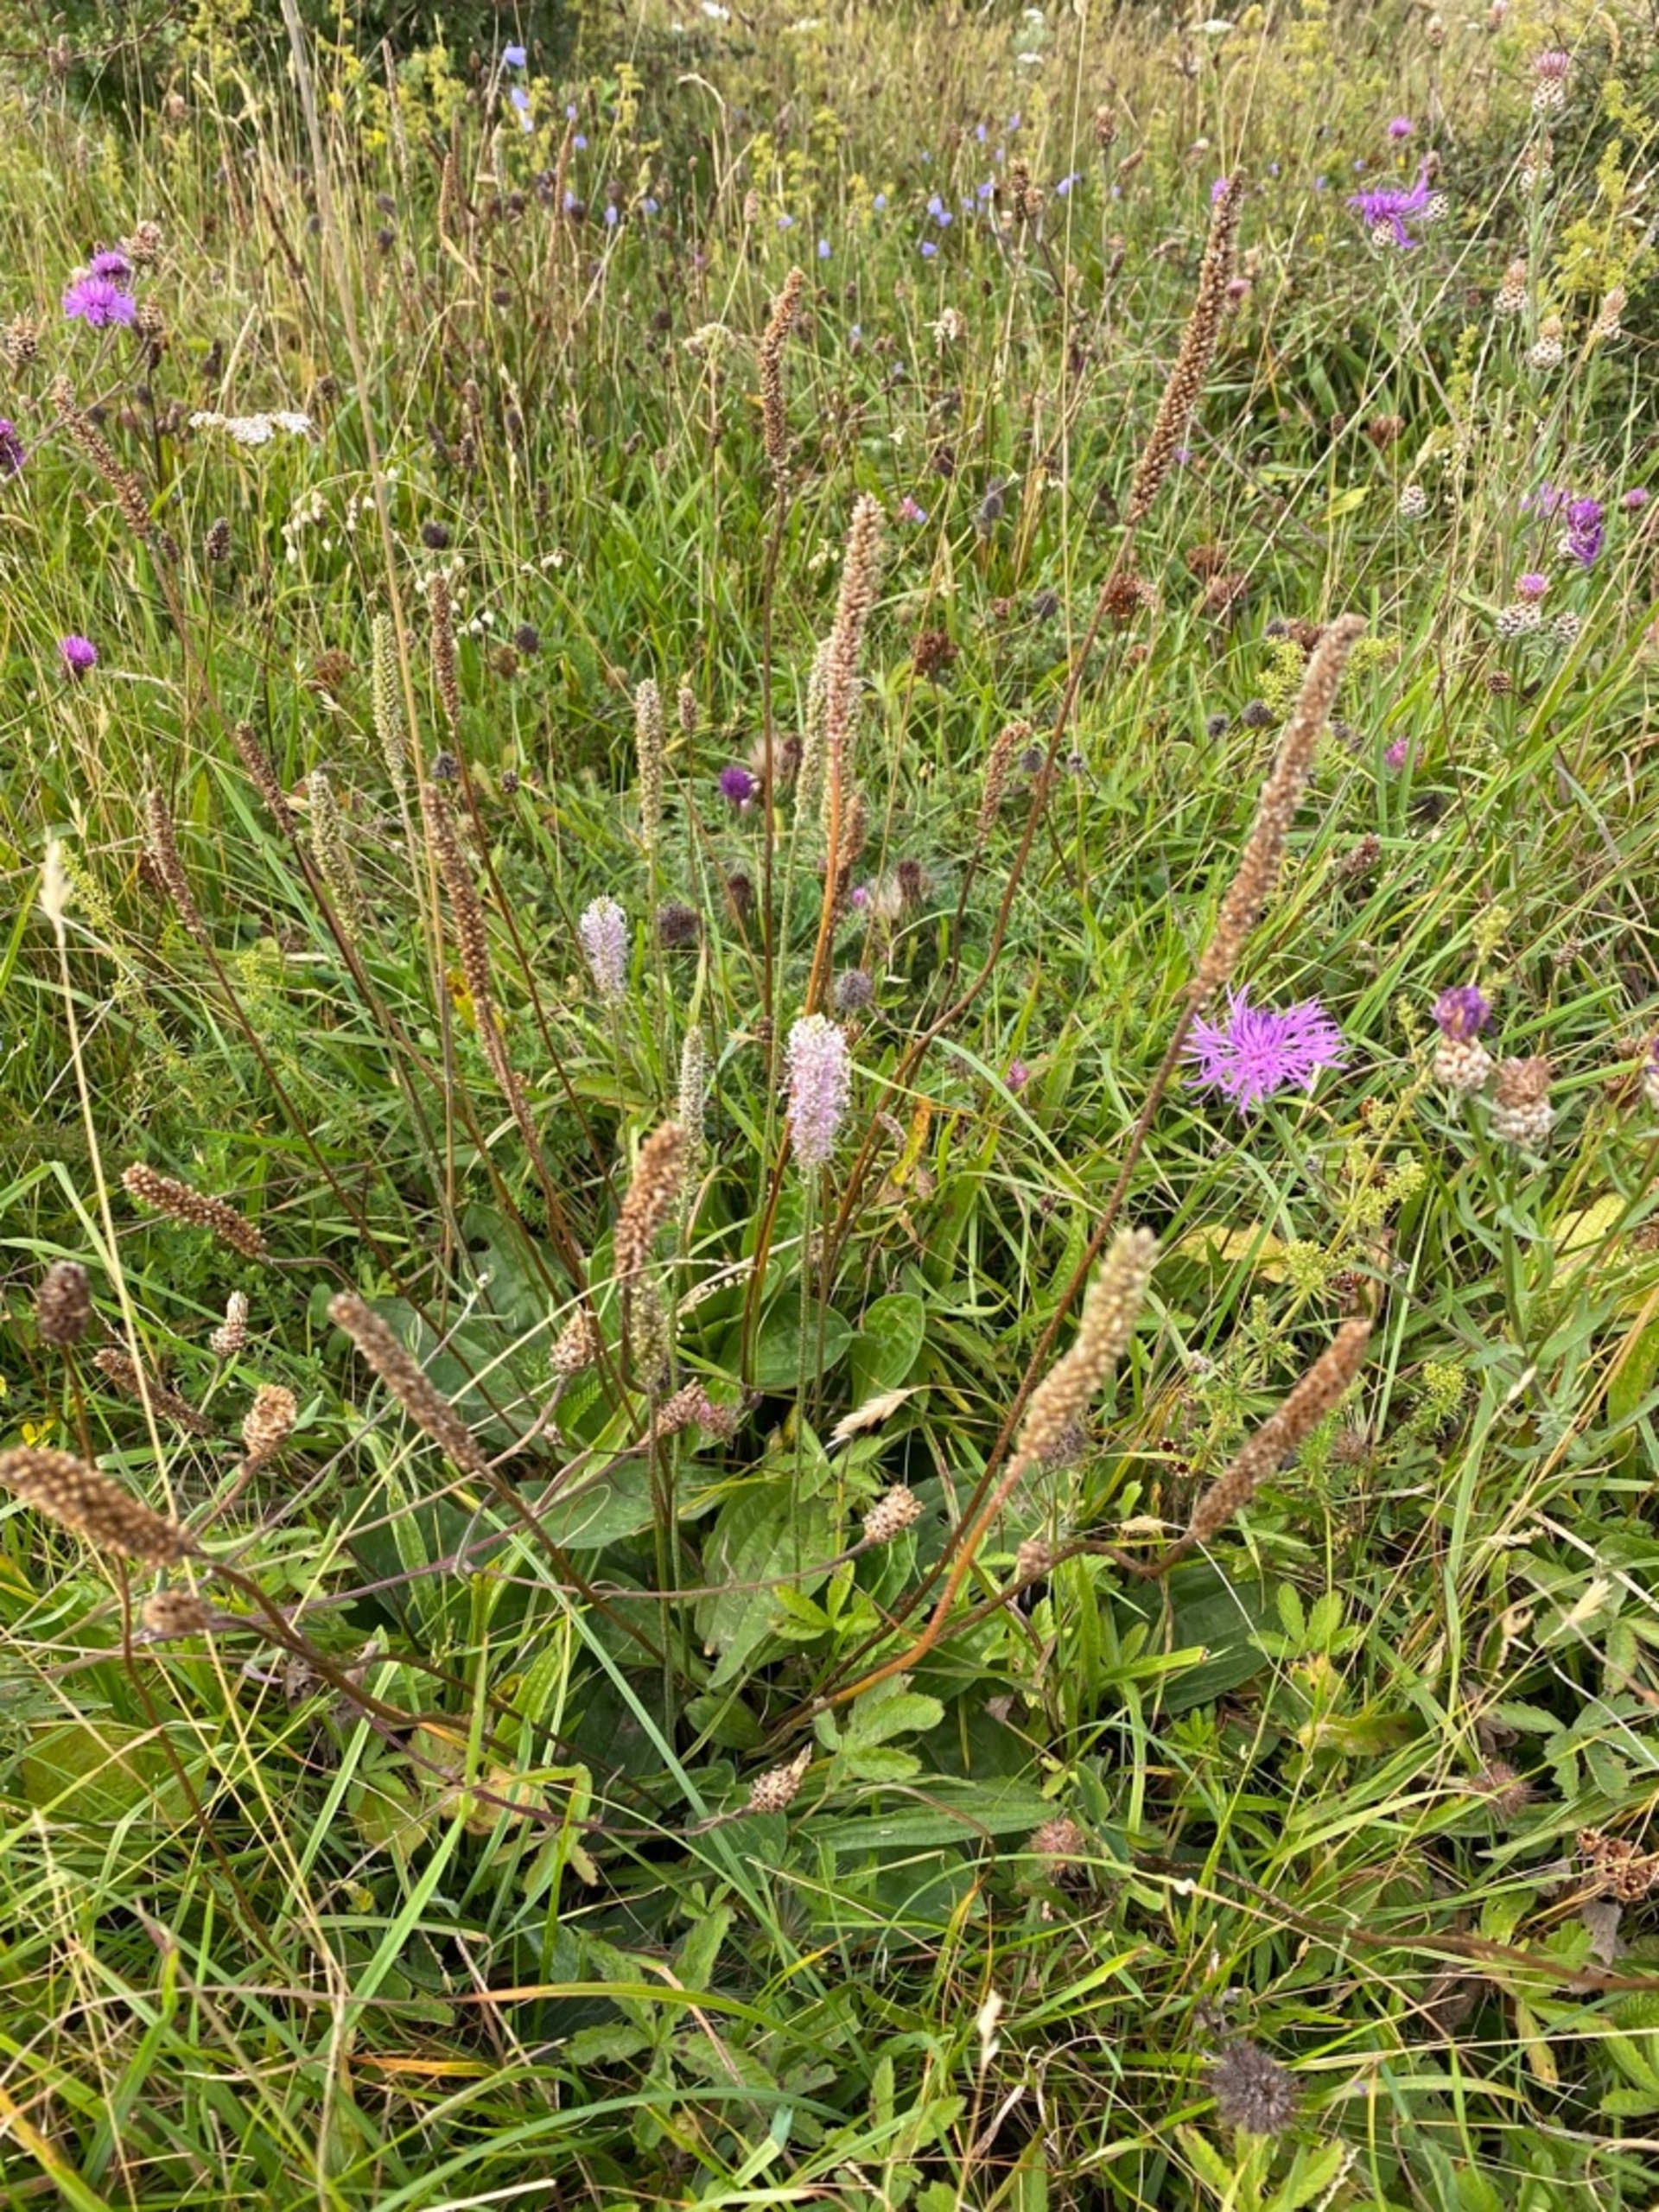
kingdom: Plantae
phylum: Tracheophyta
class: Magnoliopsida
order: Lamiales
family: Plantaginaceae
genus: Plantago
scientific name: Plantago media
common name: Dunet vejbred
